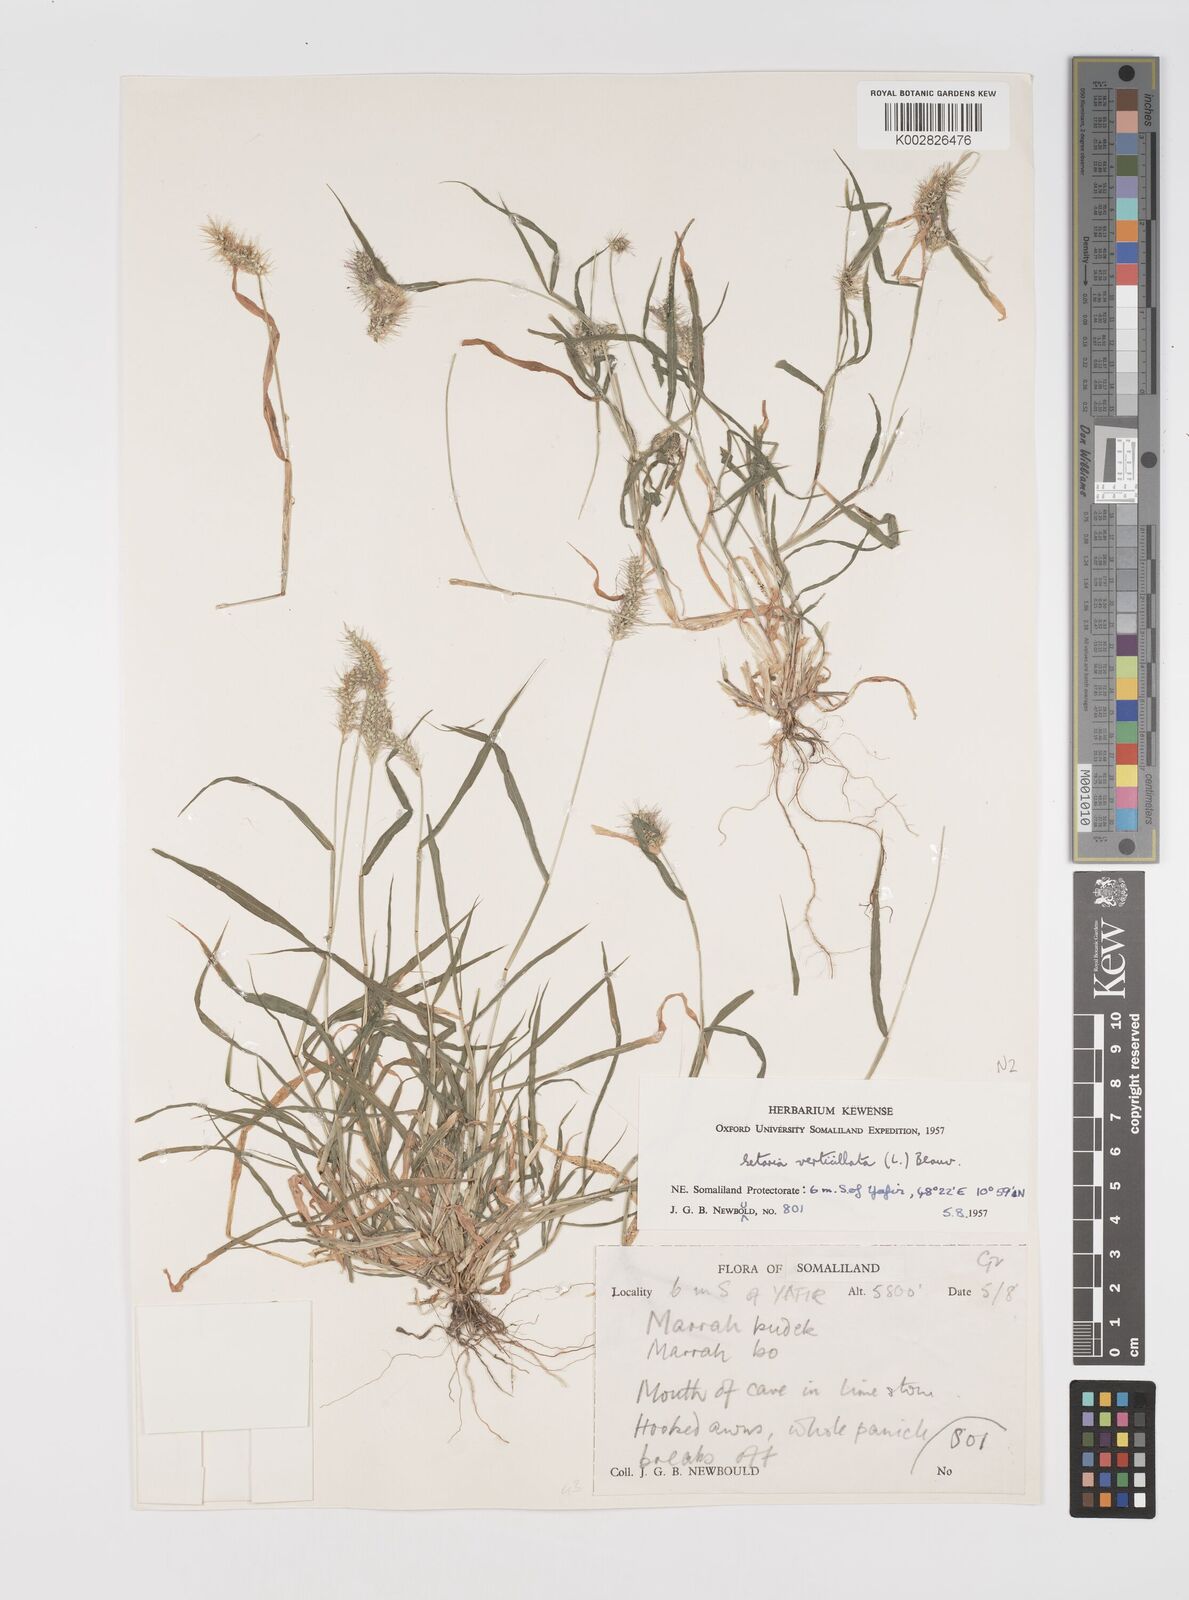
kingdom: Plantae
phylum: Tracheophyta
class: Liliopsida
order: Poales
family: Poaceae
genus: Setaria
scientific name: Setaria verticillata
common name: Hooked bristlegrass
